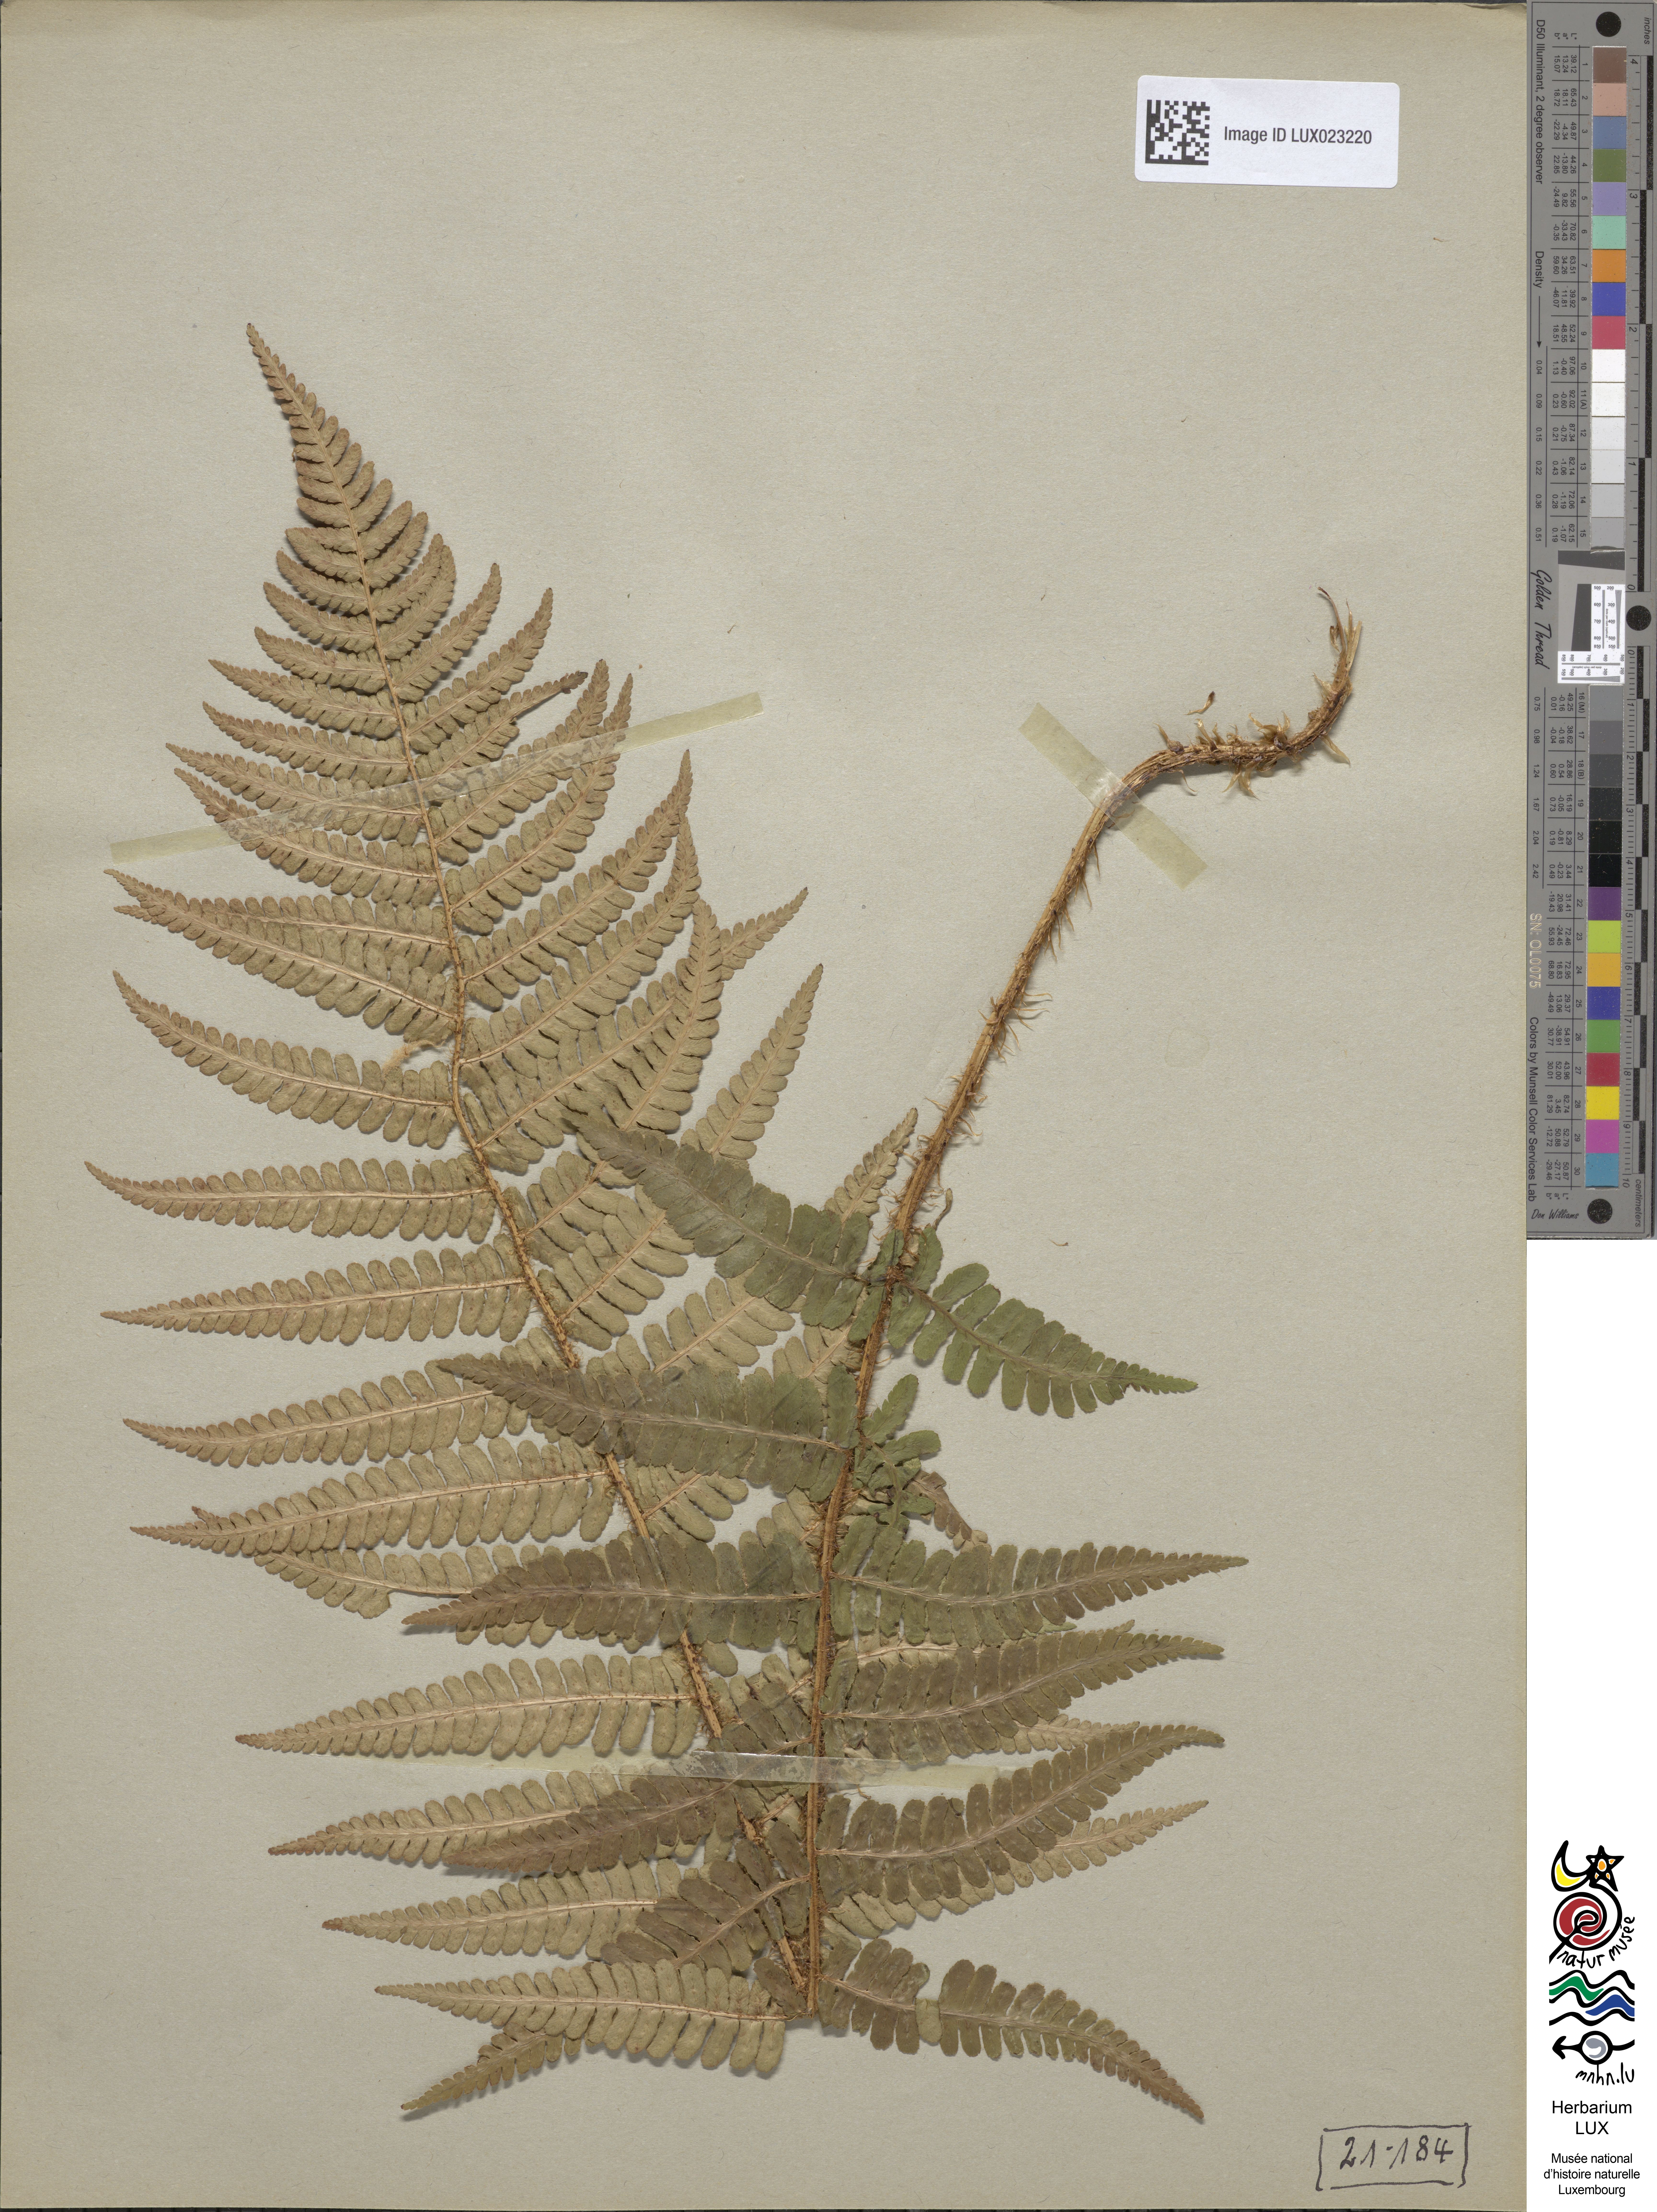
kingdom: Plantae
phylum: Tracheophyta
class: Polypodiopsida
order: Polypodiales
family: Dryopteridaceae
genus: Dryopteris
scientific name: Dryopteris borreri
